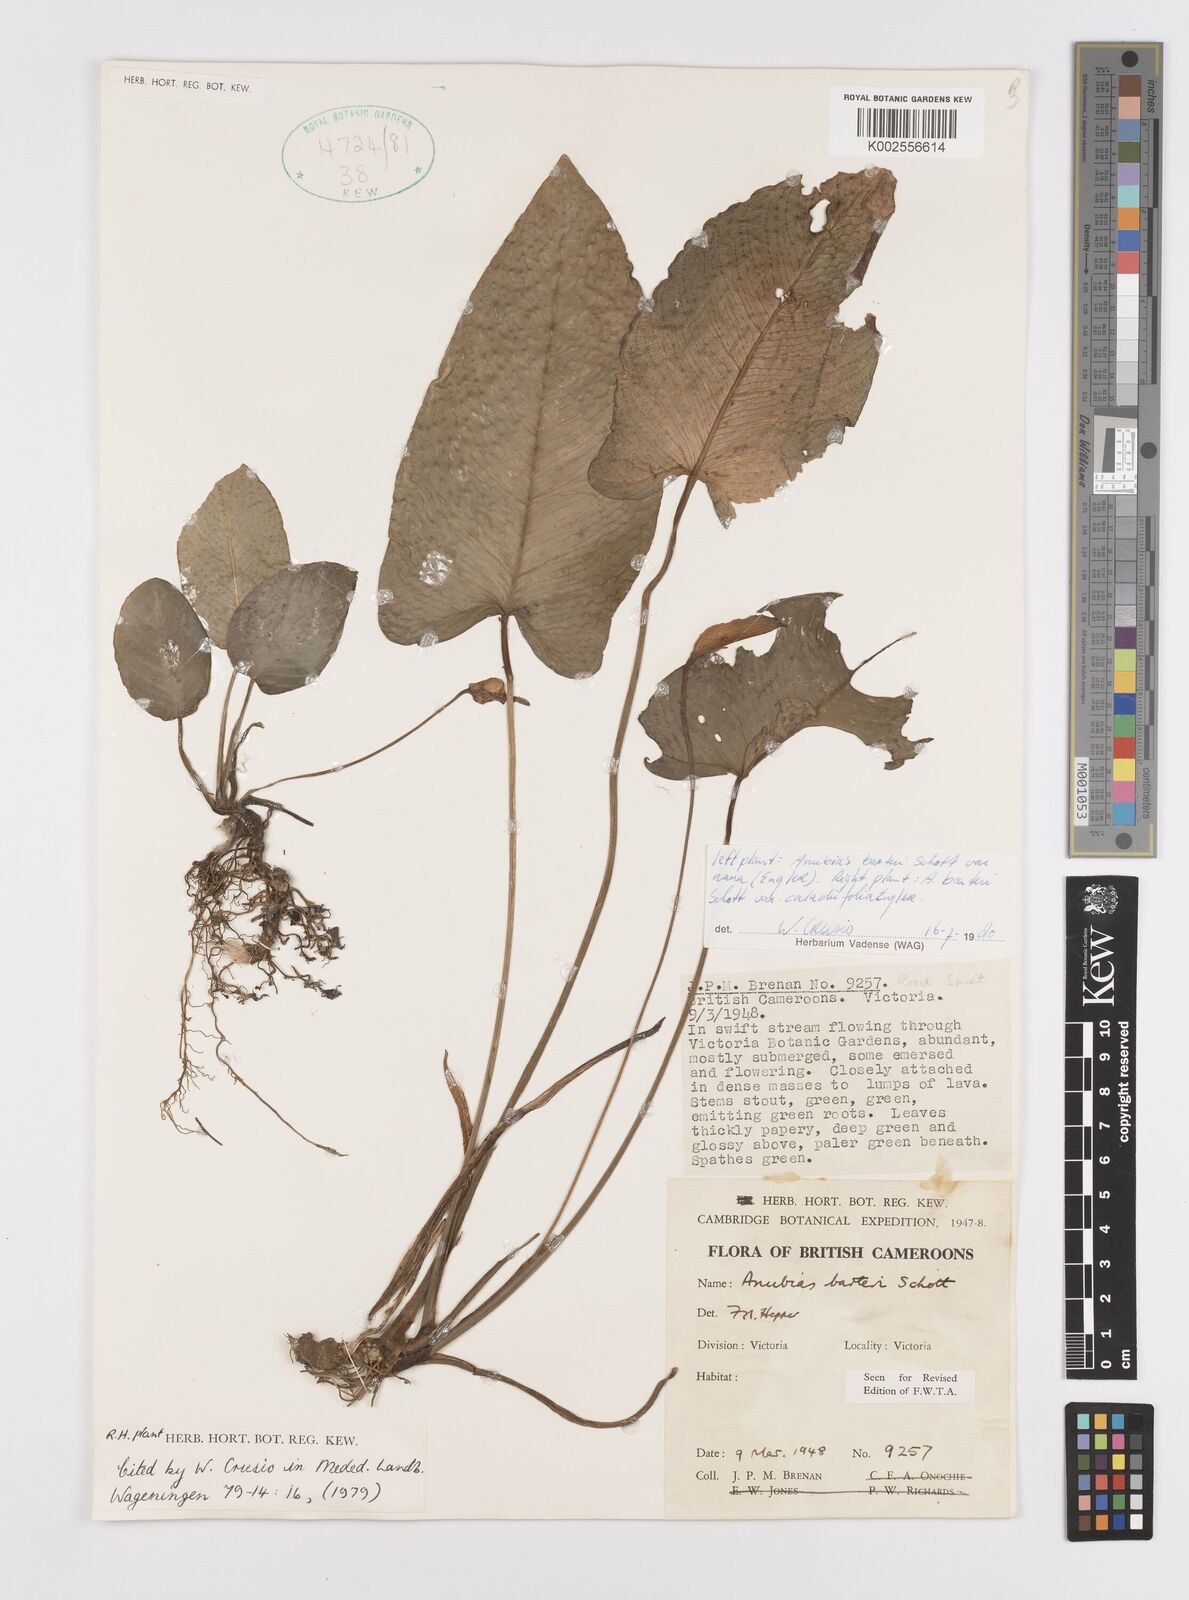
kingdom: Plantae
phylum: Tracheophyta
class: Liliopsida
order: Alismatales
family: Araceae
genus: Anubias
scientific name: Anubias barteri
